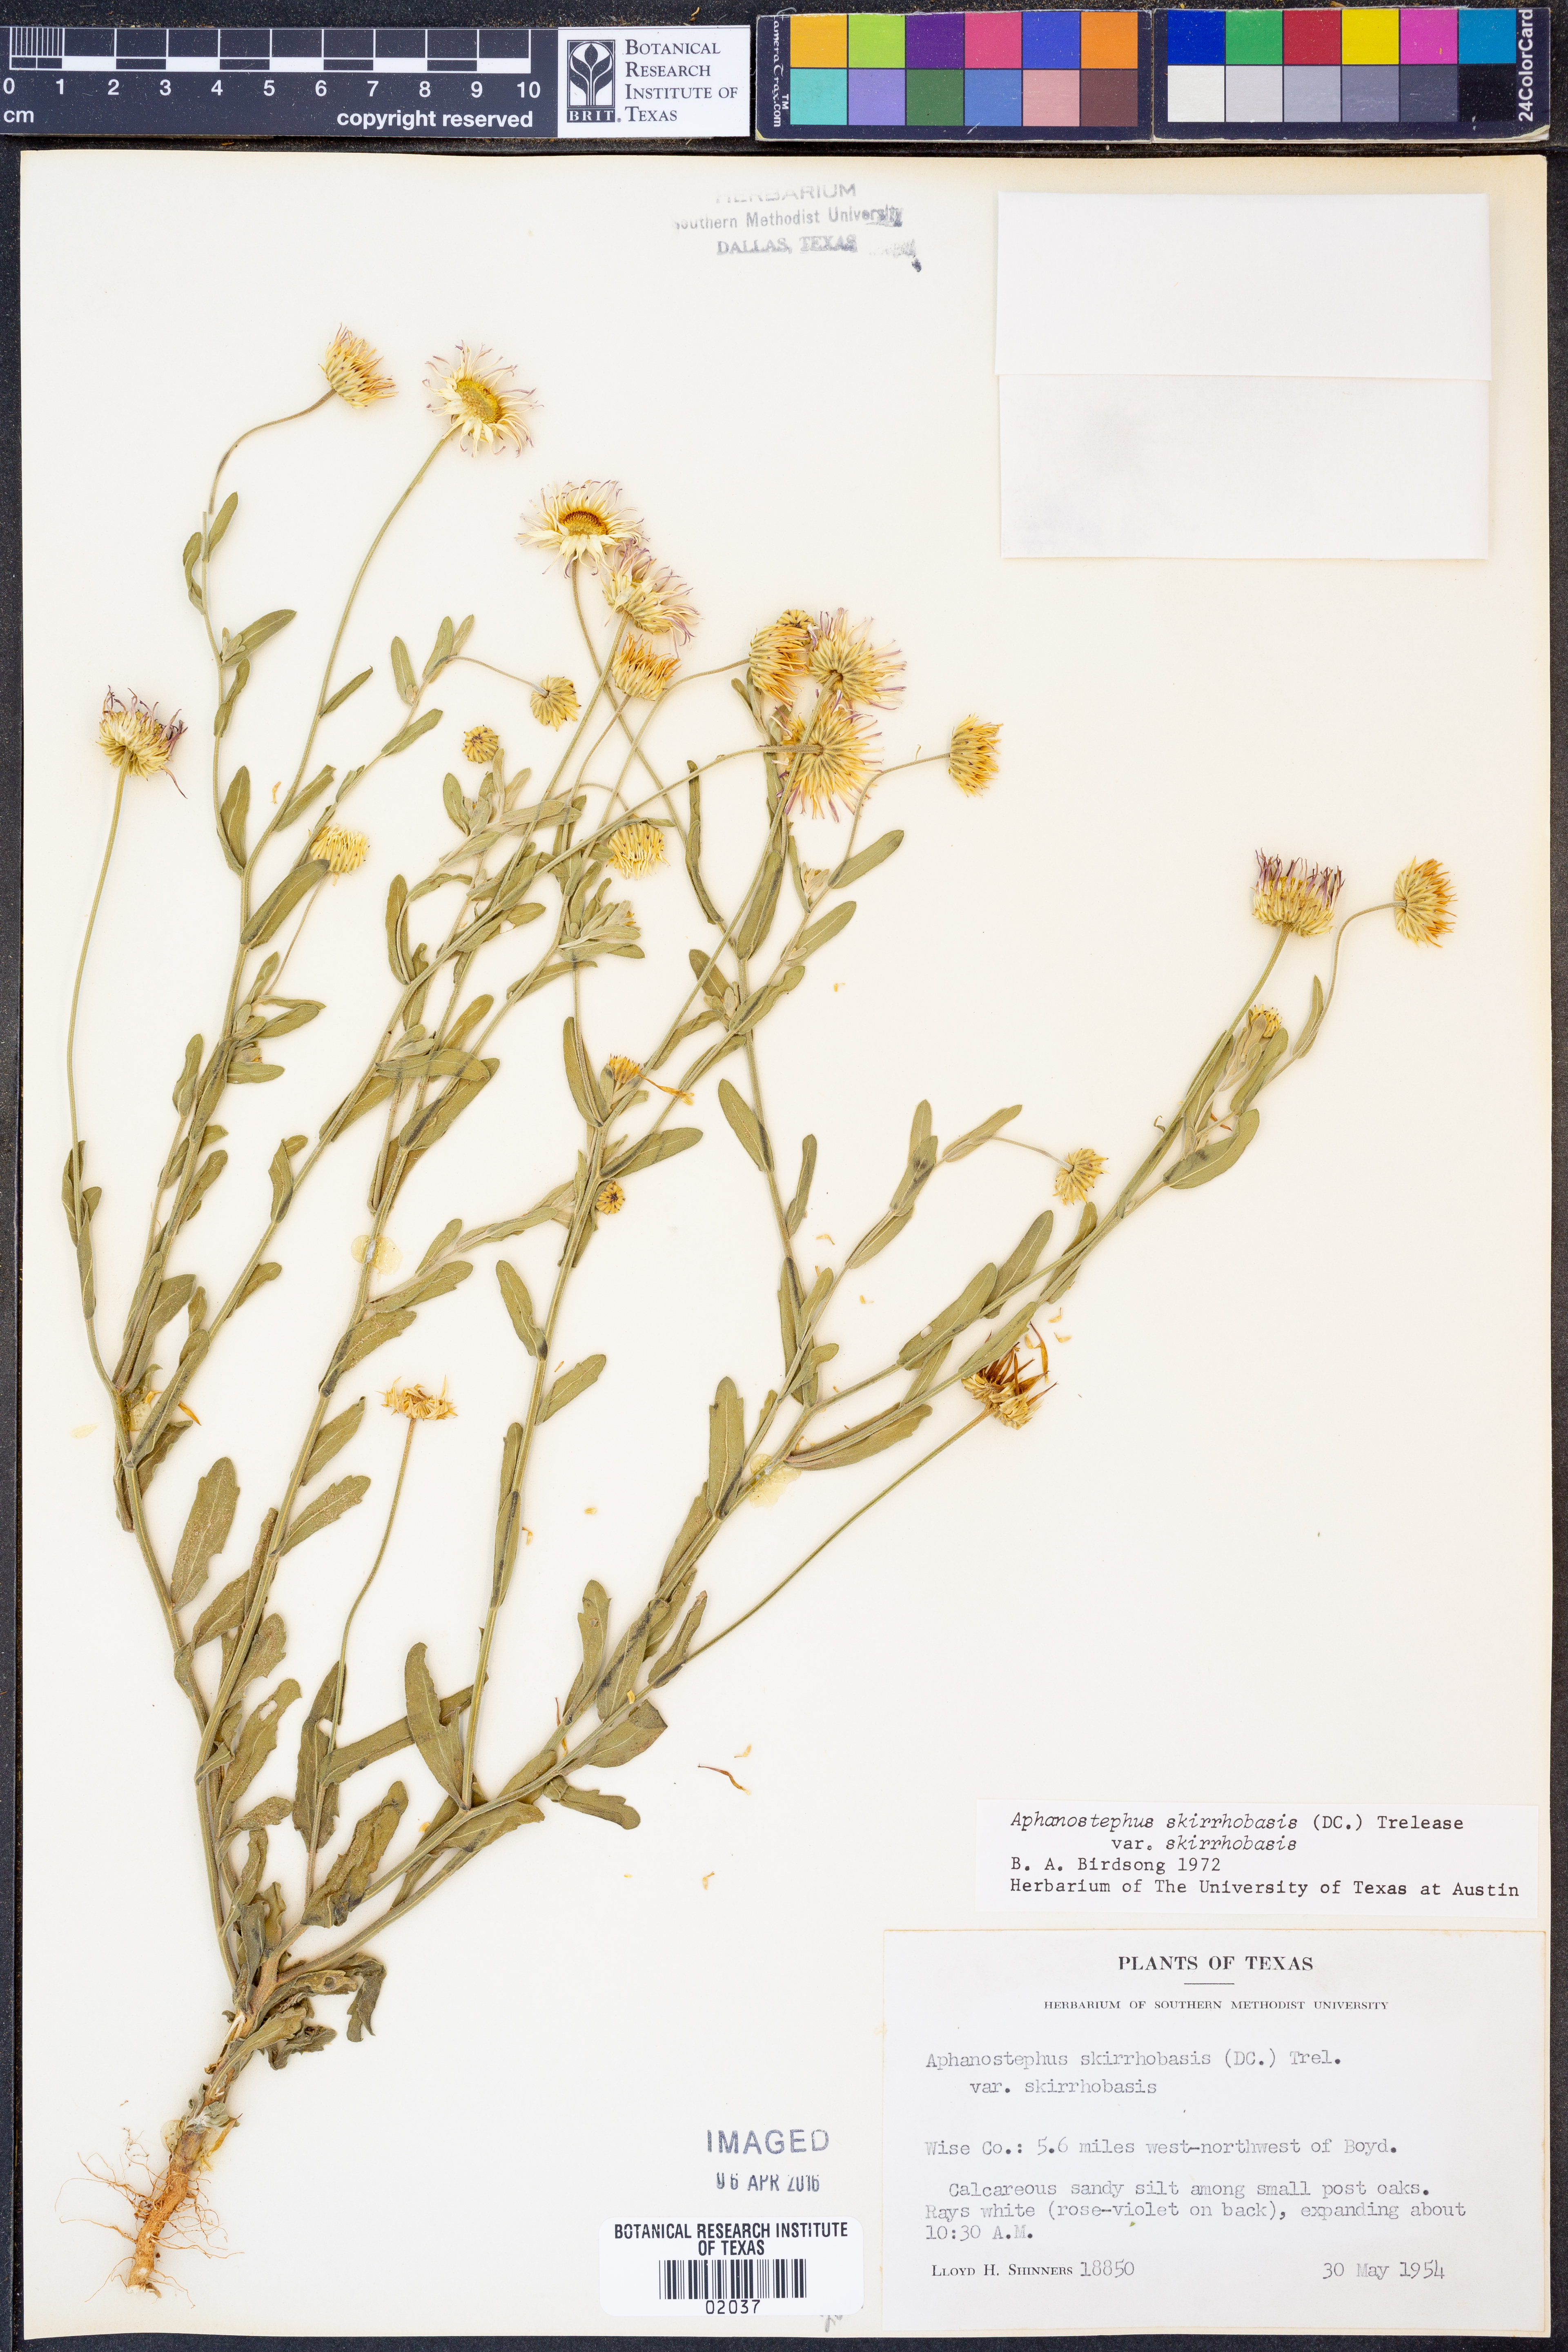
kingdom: Plantae
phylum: Tracheophyta
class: Magnoliopsida
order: Asterales
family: Asteraceae
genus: Aphanostephus
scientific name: Aphanostephus skirrhobasis
